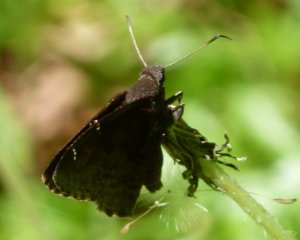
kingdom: Animalia
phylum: Arthropoda
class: Insecta
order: Lepidoptera
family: Hesperiidae
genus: Autochton
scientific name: Autochton
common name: Northern Cloudywing
